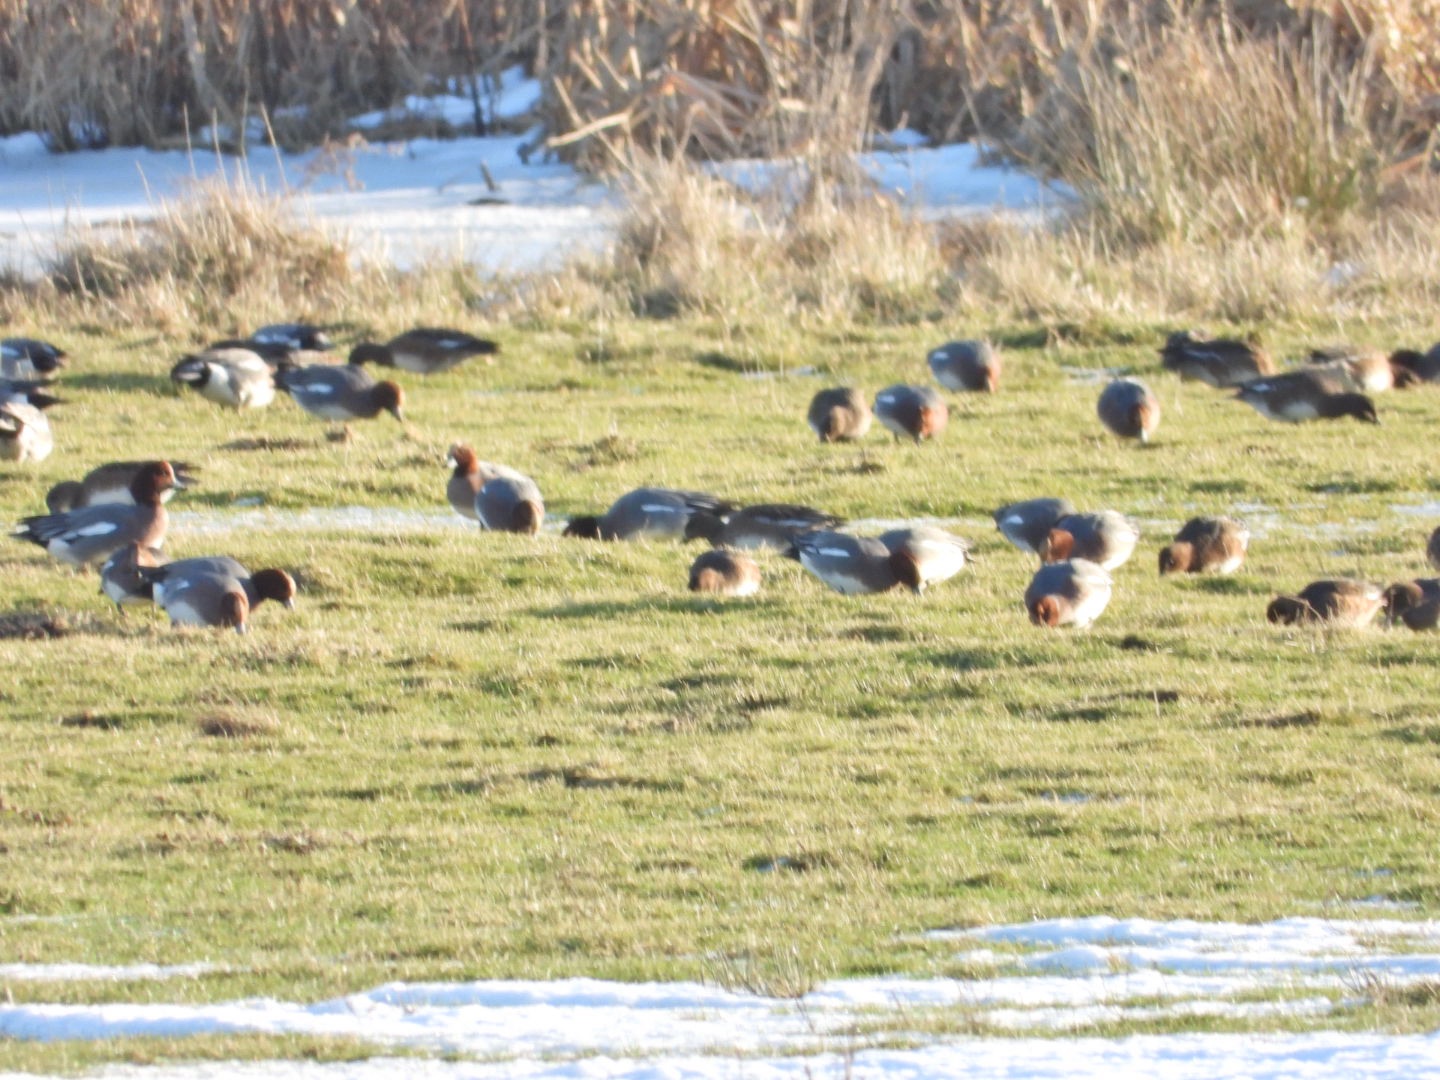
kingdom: Animalia
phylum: Chordata
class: Aves
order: Anseriformes
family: Anatidae
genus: Mareca
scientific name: Mareca penelope
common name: Pibeand
